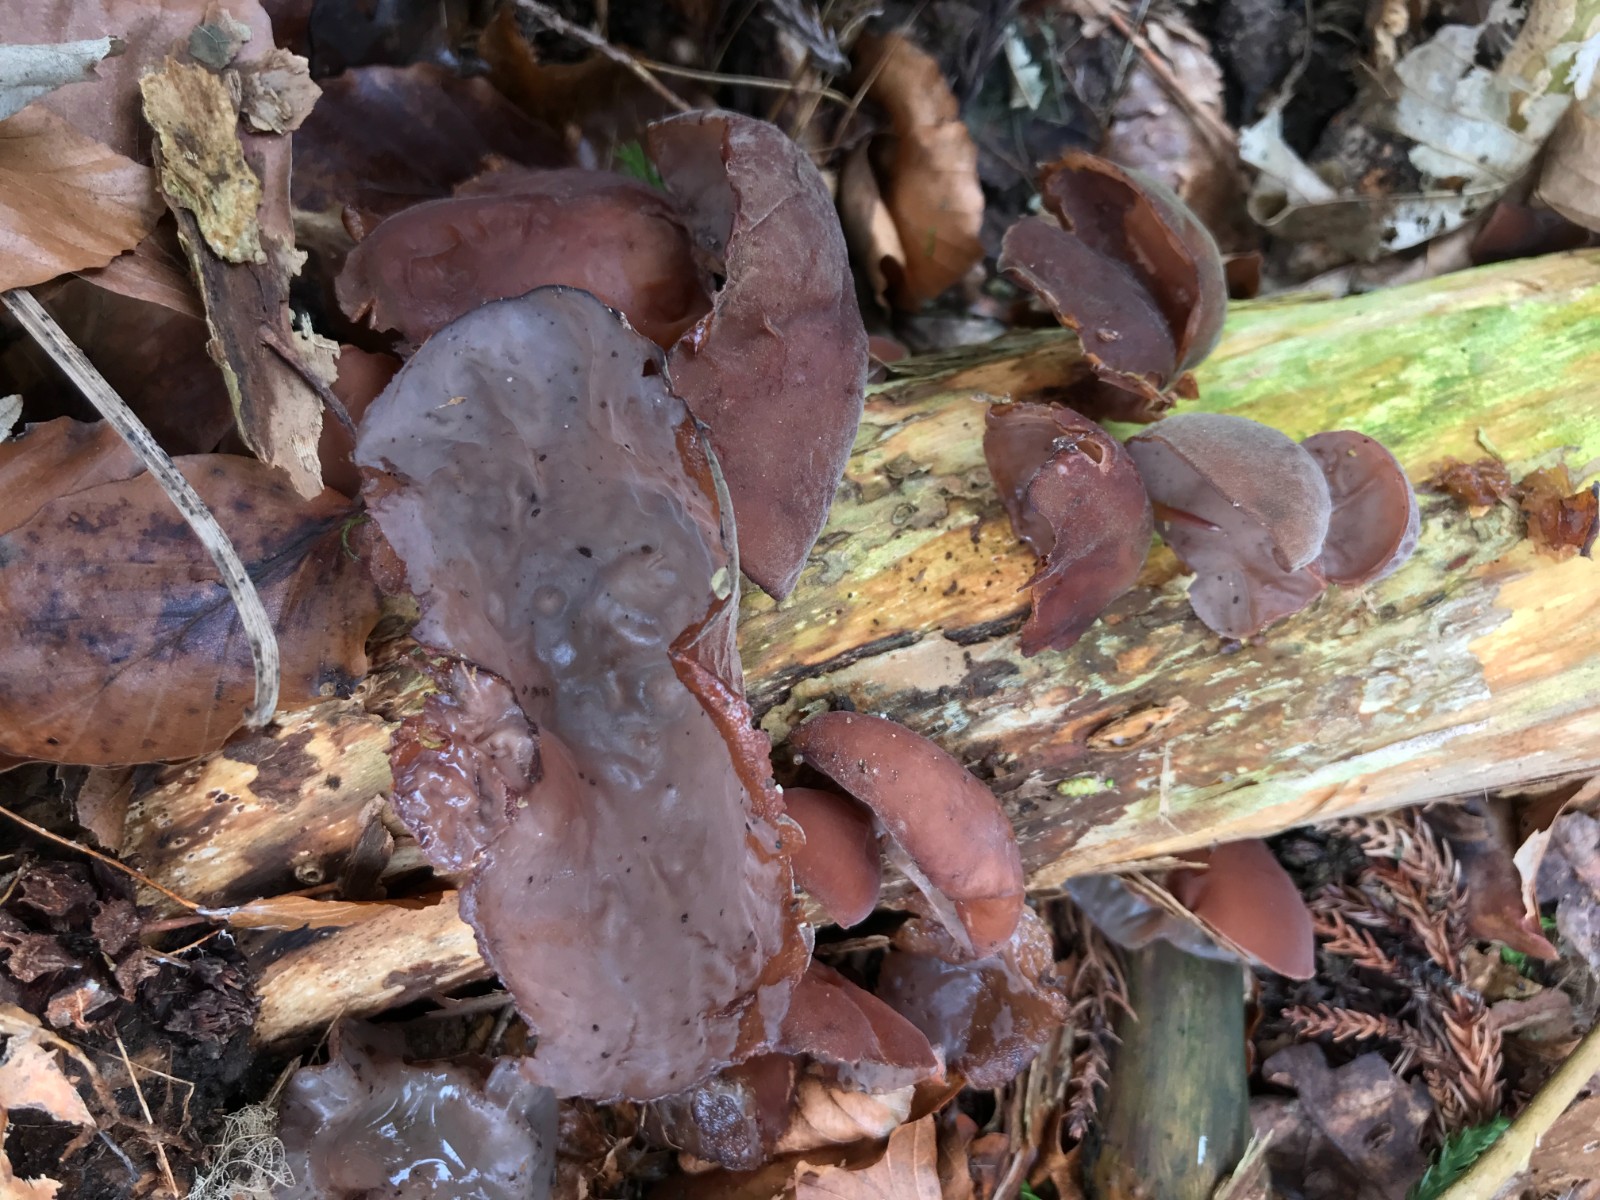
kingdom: Fungi
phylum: Basidiomycota
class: Agaricomycetes
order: Auriculariales
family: Auriculariaceae
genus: Auricularia
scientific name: Auricularia auricula-judae
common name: almindelig judasøre
